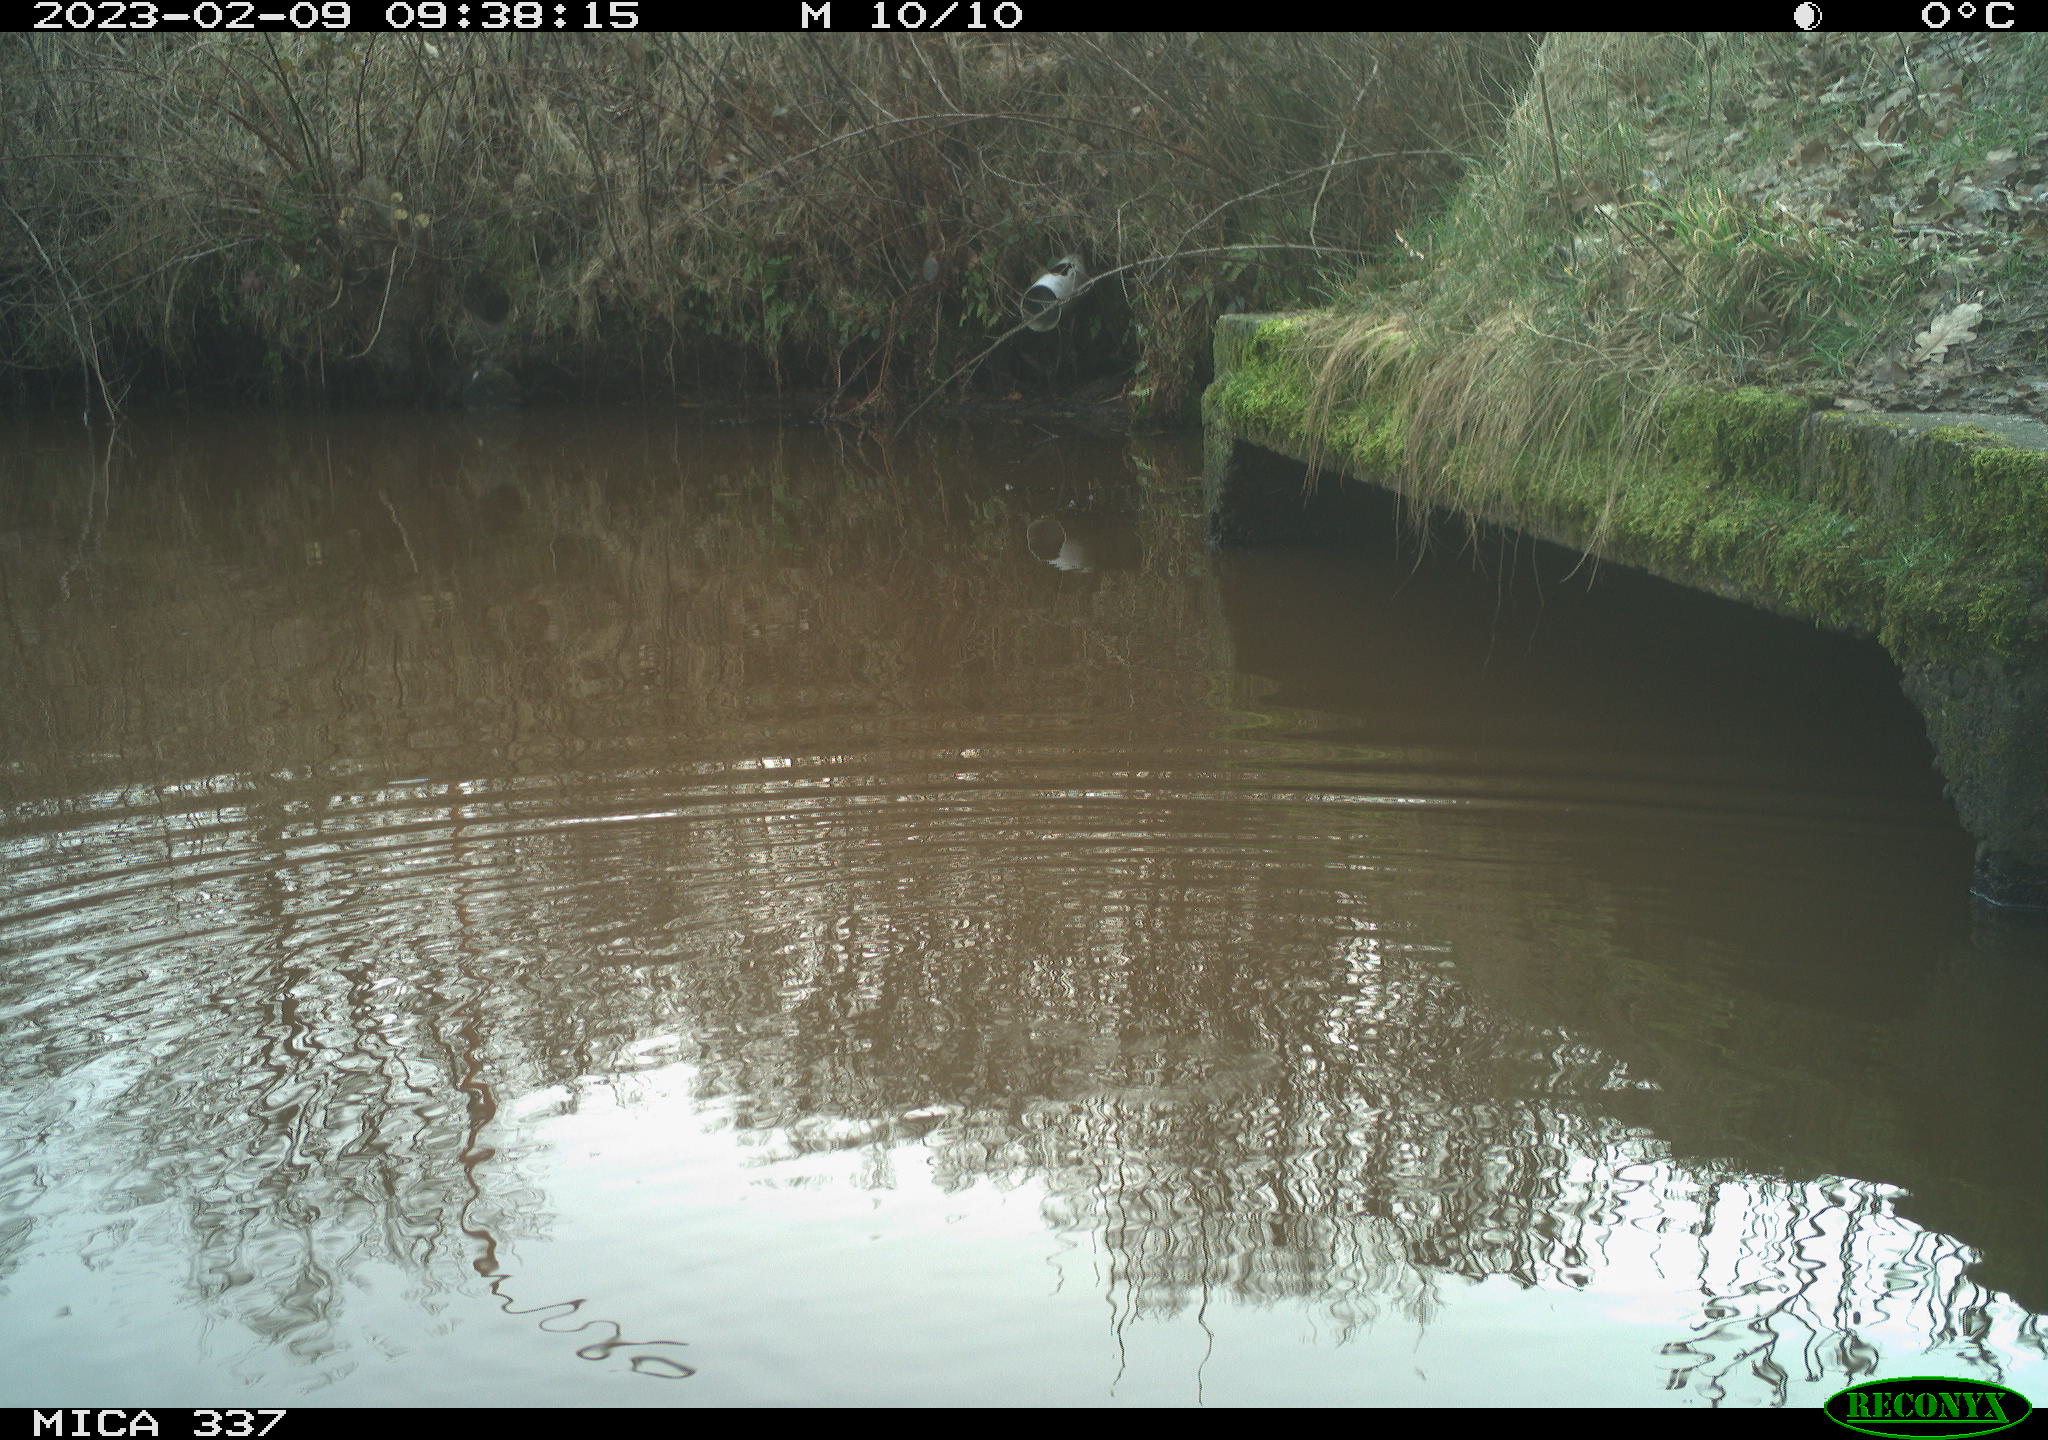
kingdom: Animalia
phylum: Chordata
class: Aves
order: Coraciiformes
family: Alcedinidae
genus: Alcedo
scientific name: Alcedo atthis
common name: Common kingfisher
